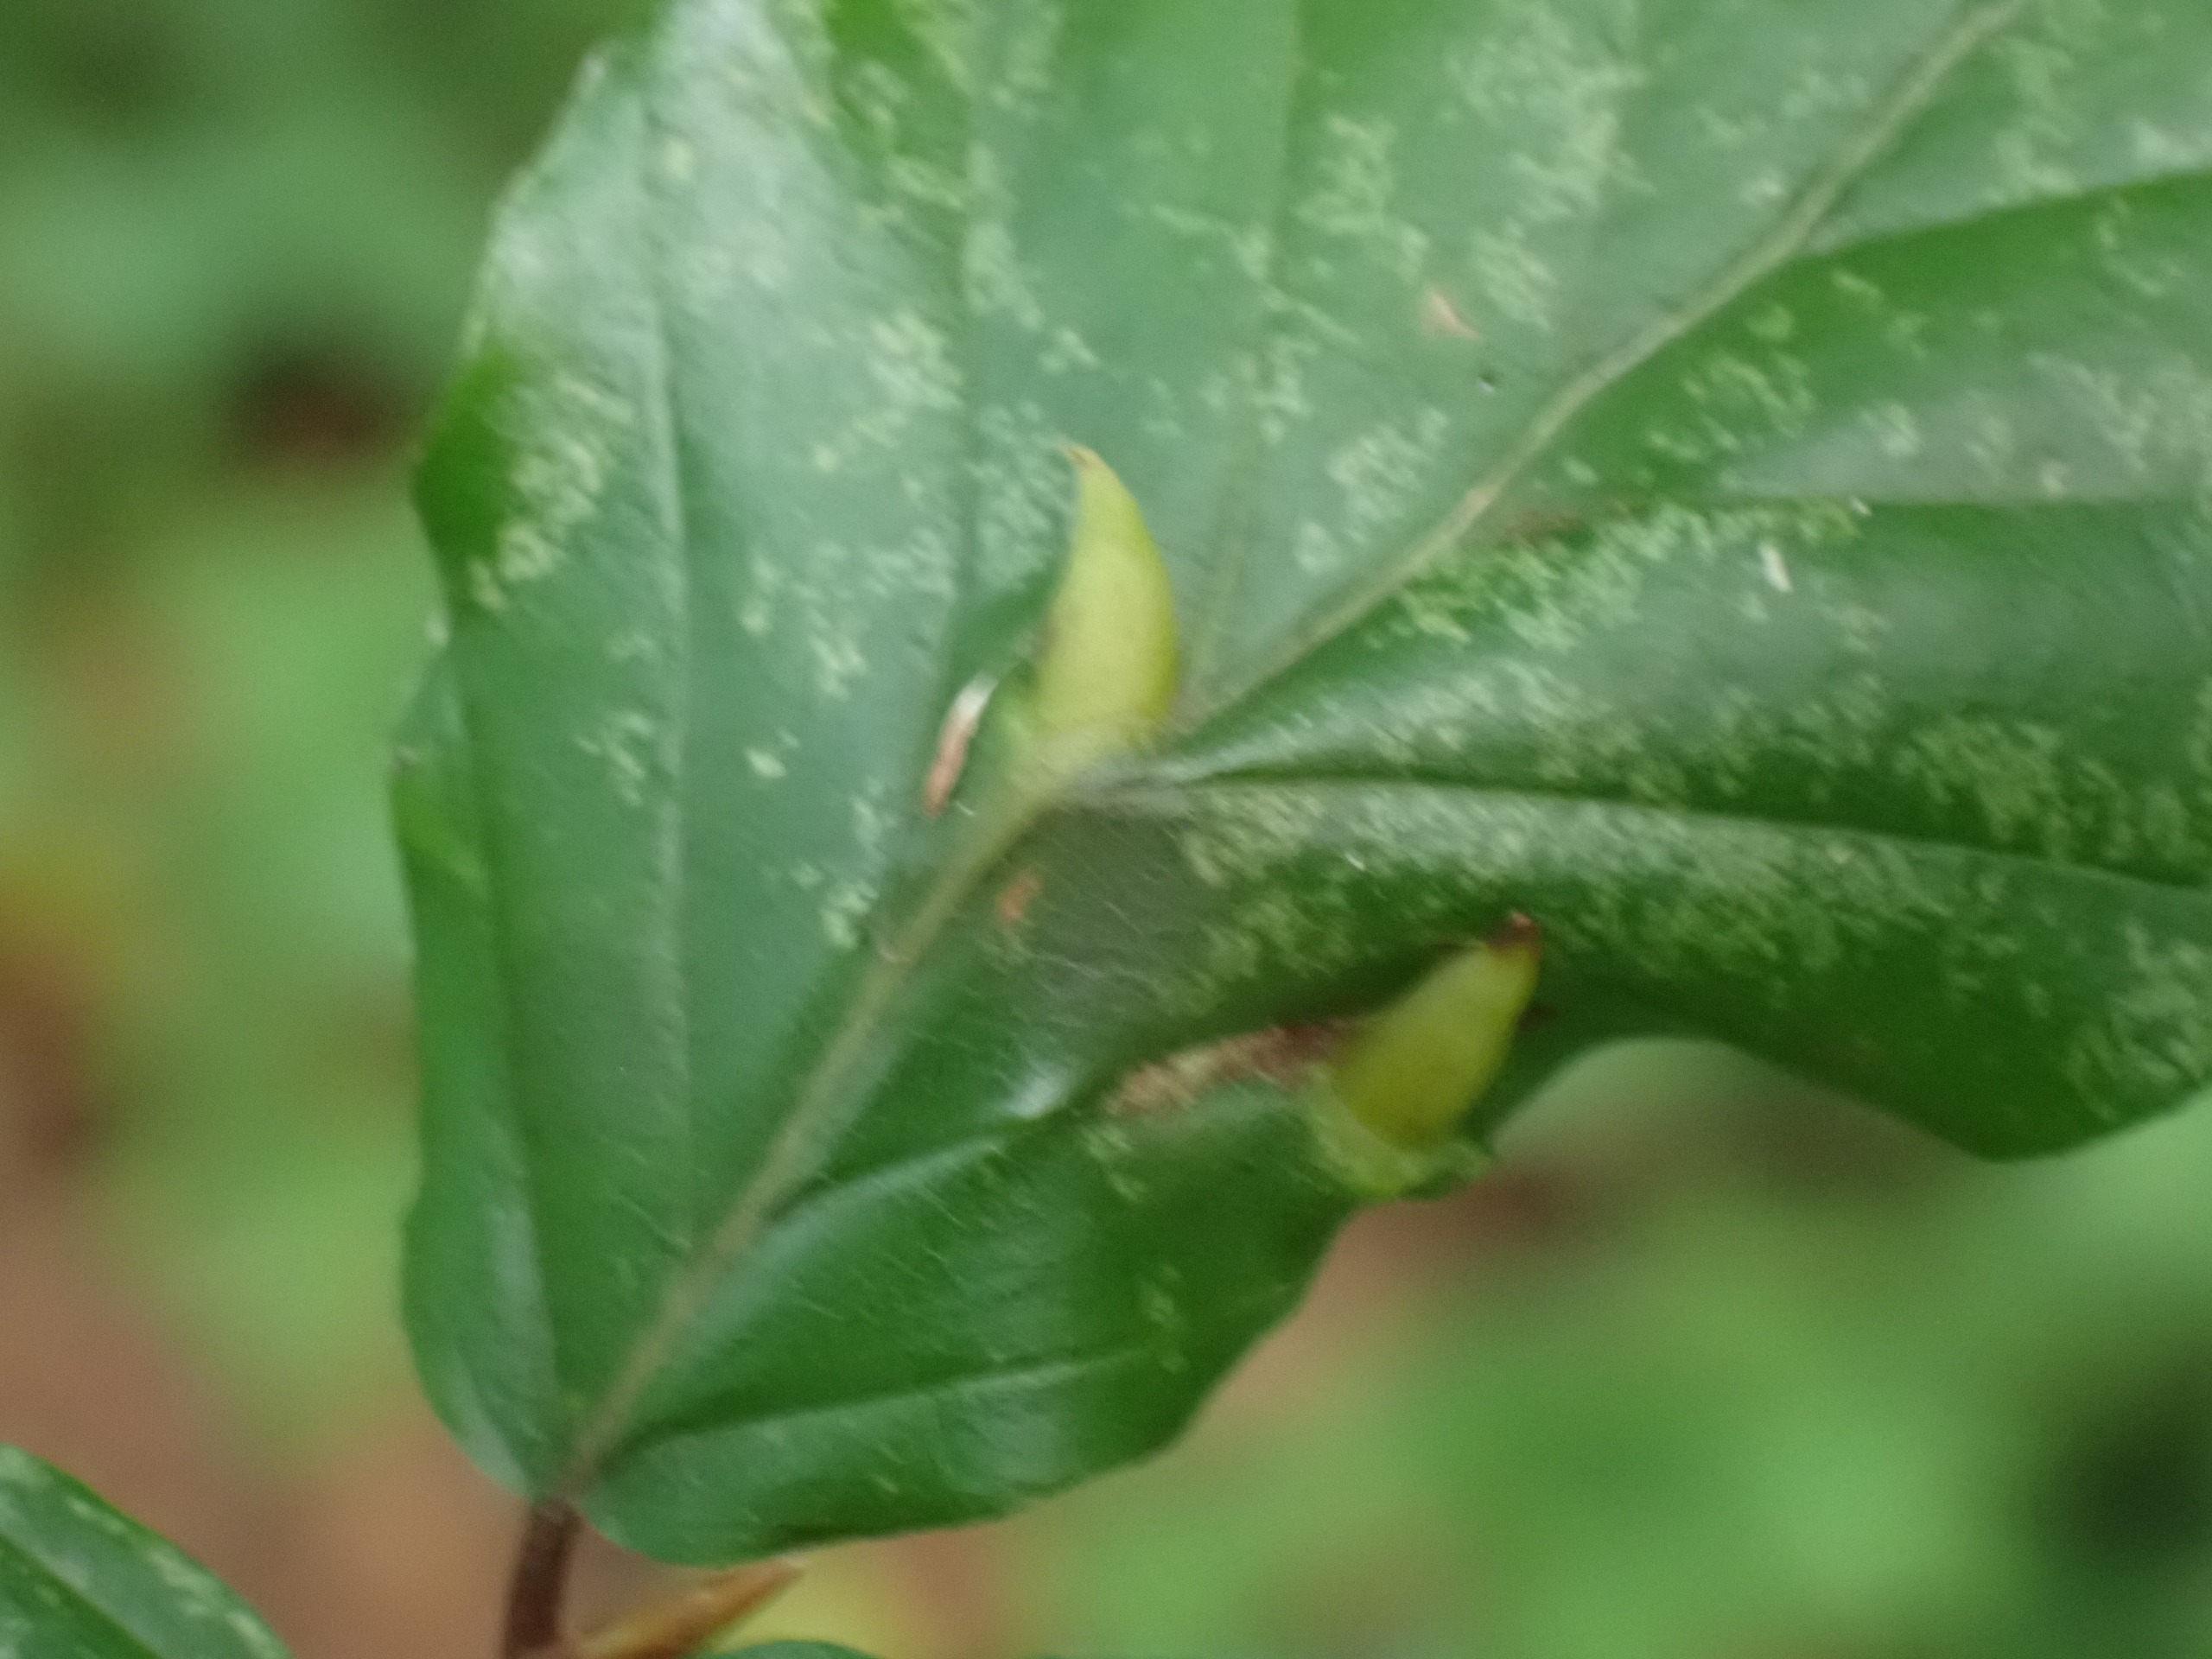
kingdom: Animalia
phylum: Arthropoda
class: Insecta
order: Diptera
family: Cecidomyiidae
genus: Mikiola
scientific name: Mikiola fagi
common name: Bøgegalmyg
